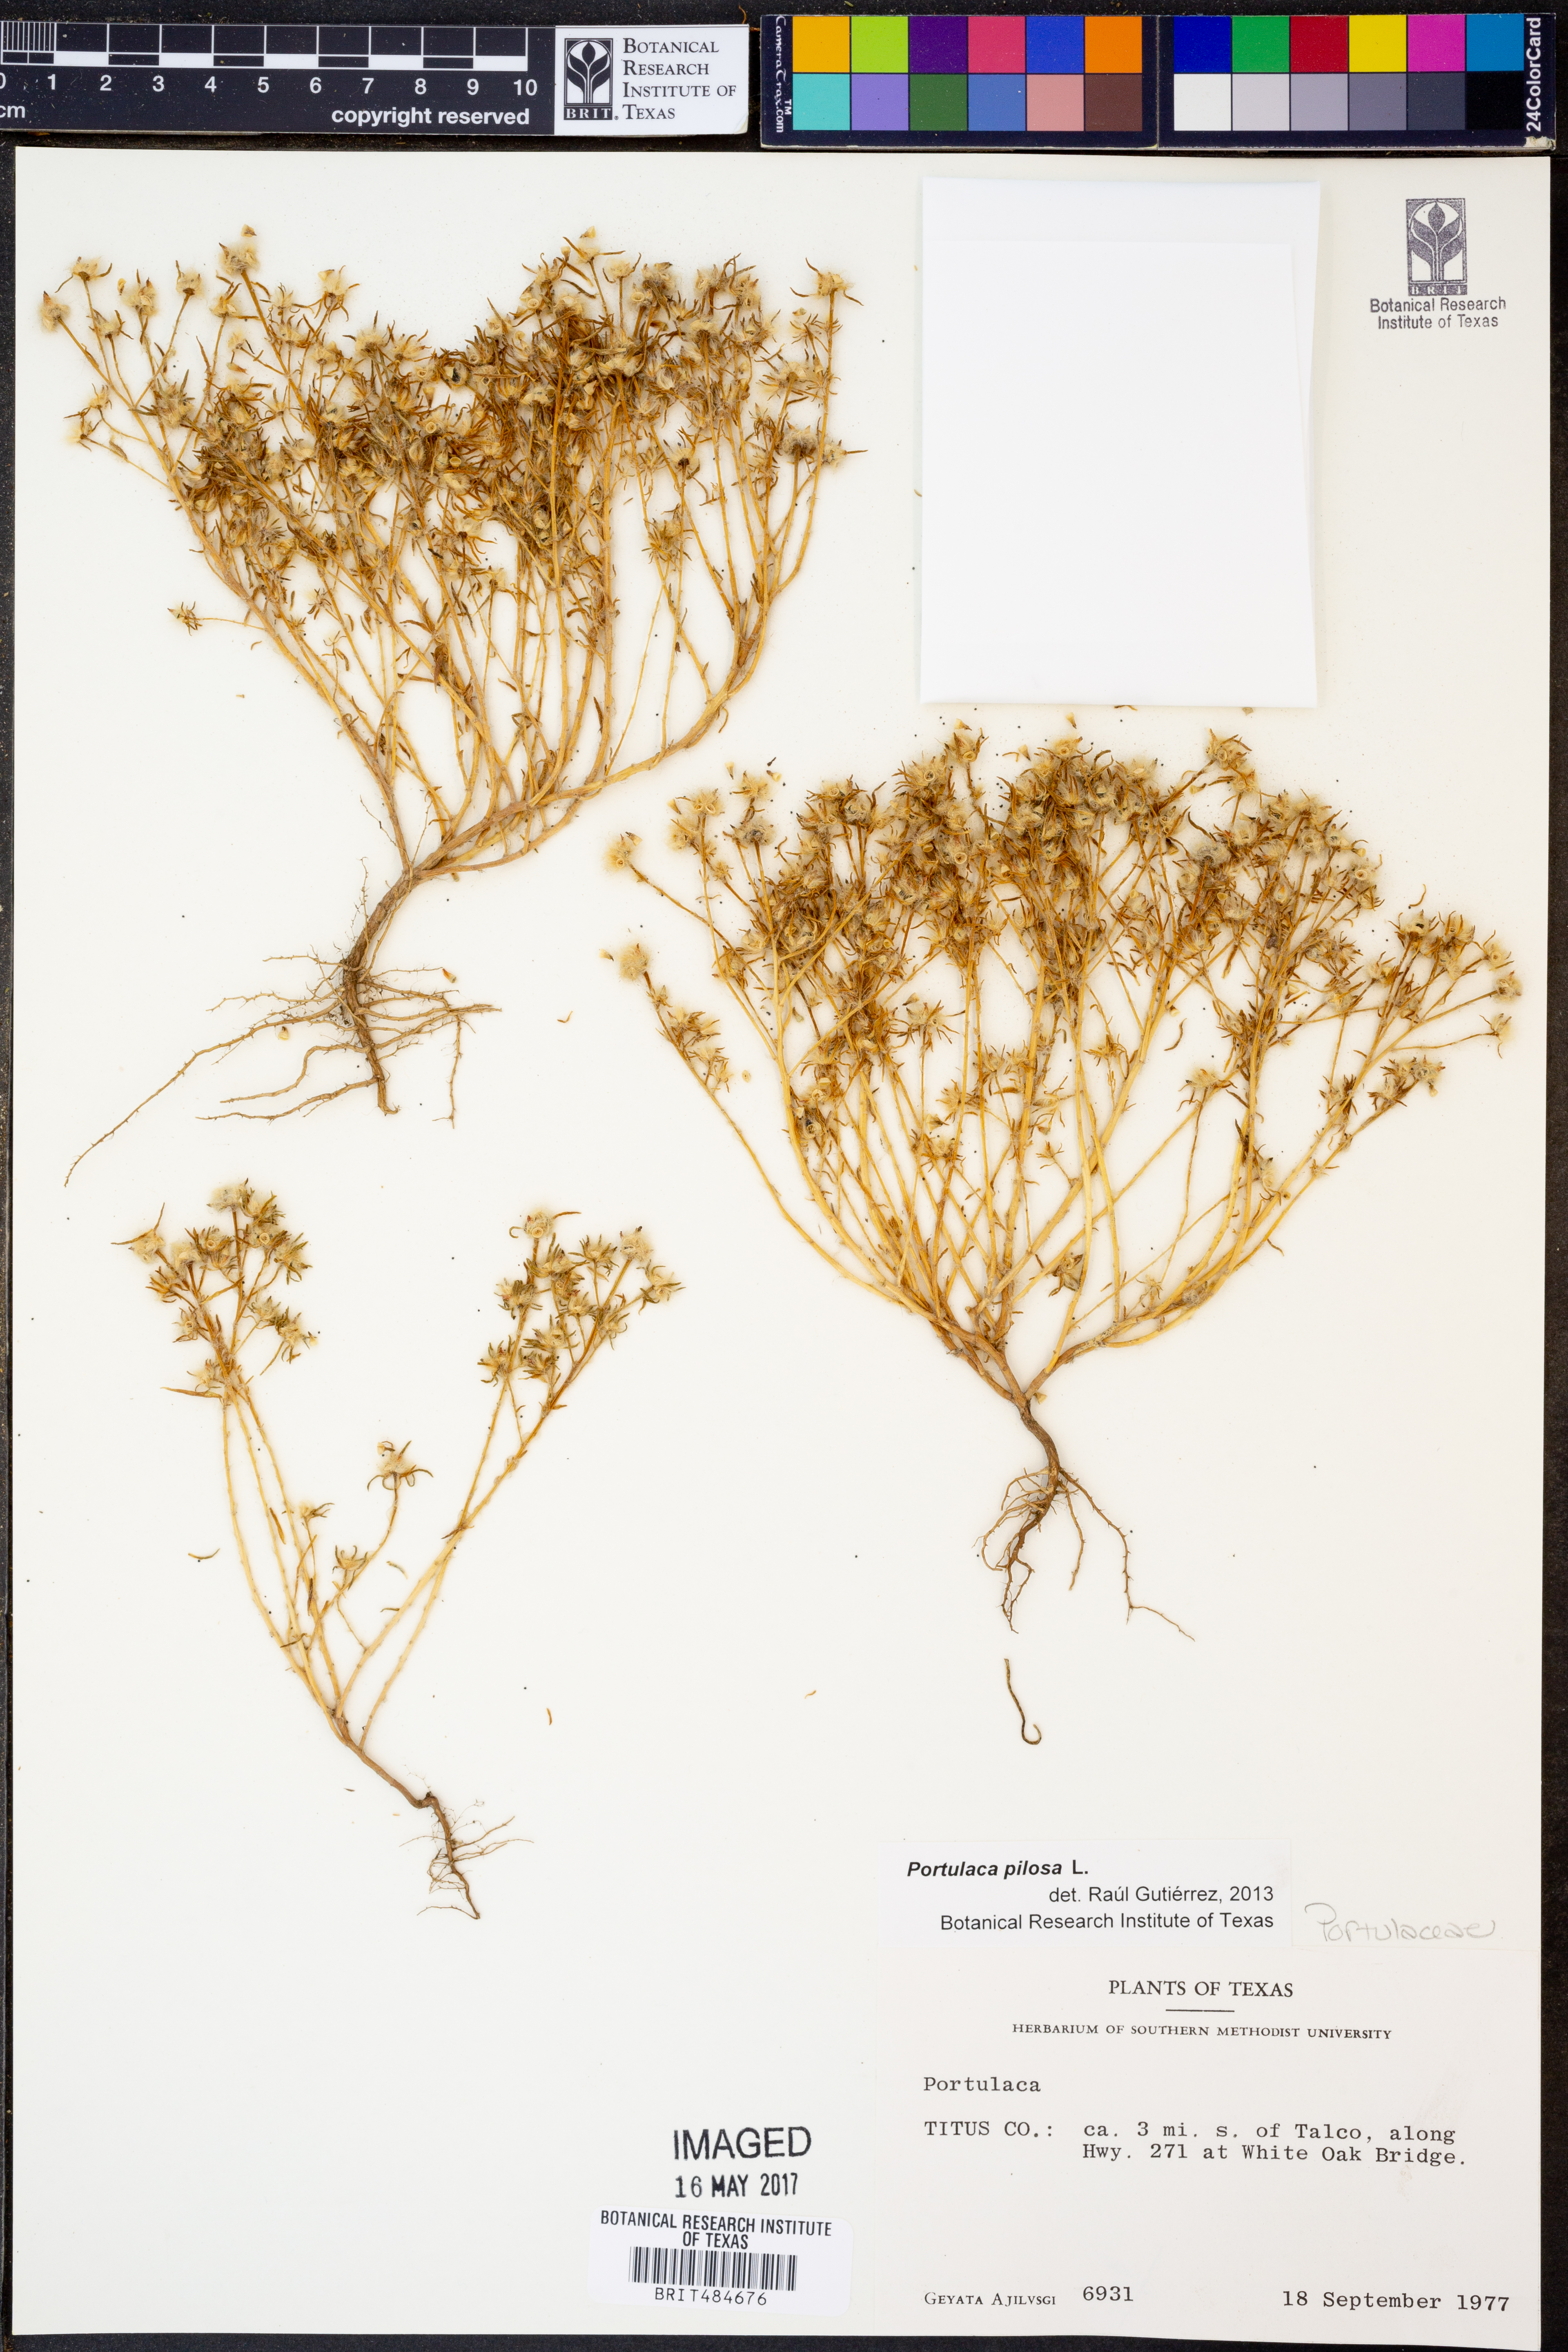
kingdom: Plantae
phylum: Tracheophyta
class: Magnoliopsida
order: Caryophyllales
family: Portulacaceae
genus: Portulaca
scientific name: Portulaca pilosa
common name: Kiss me quick
